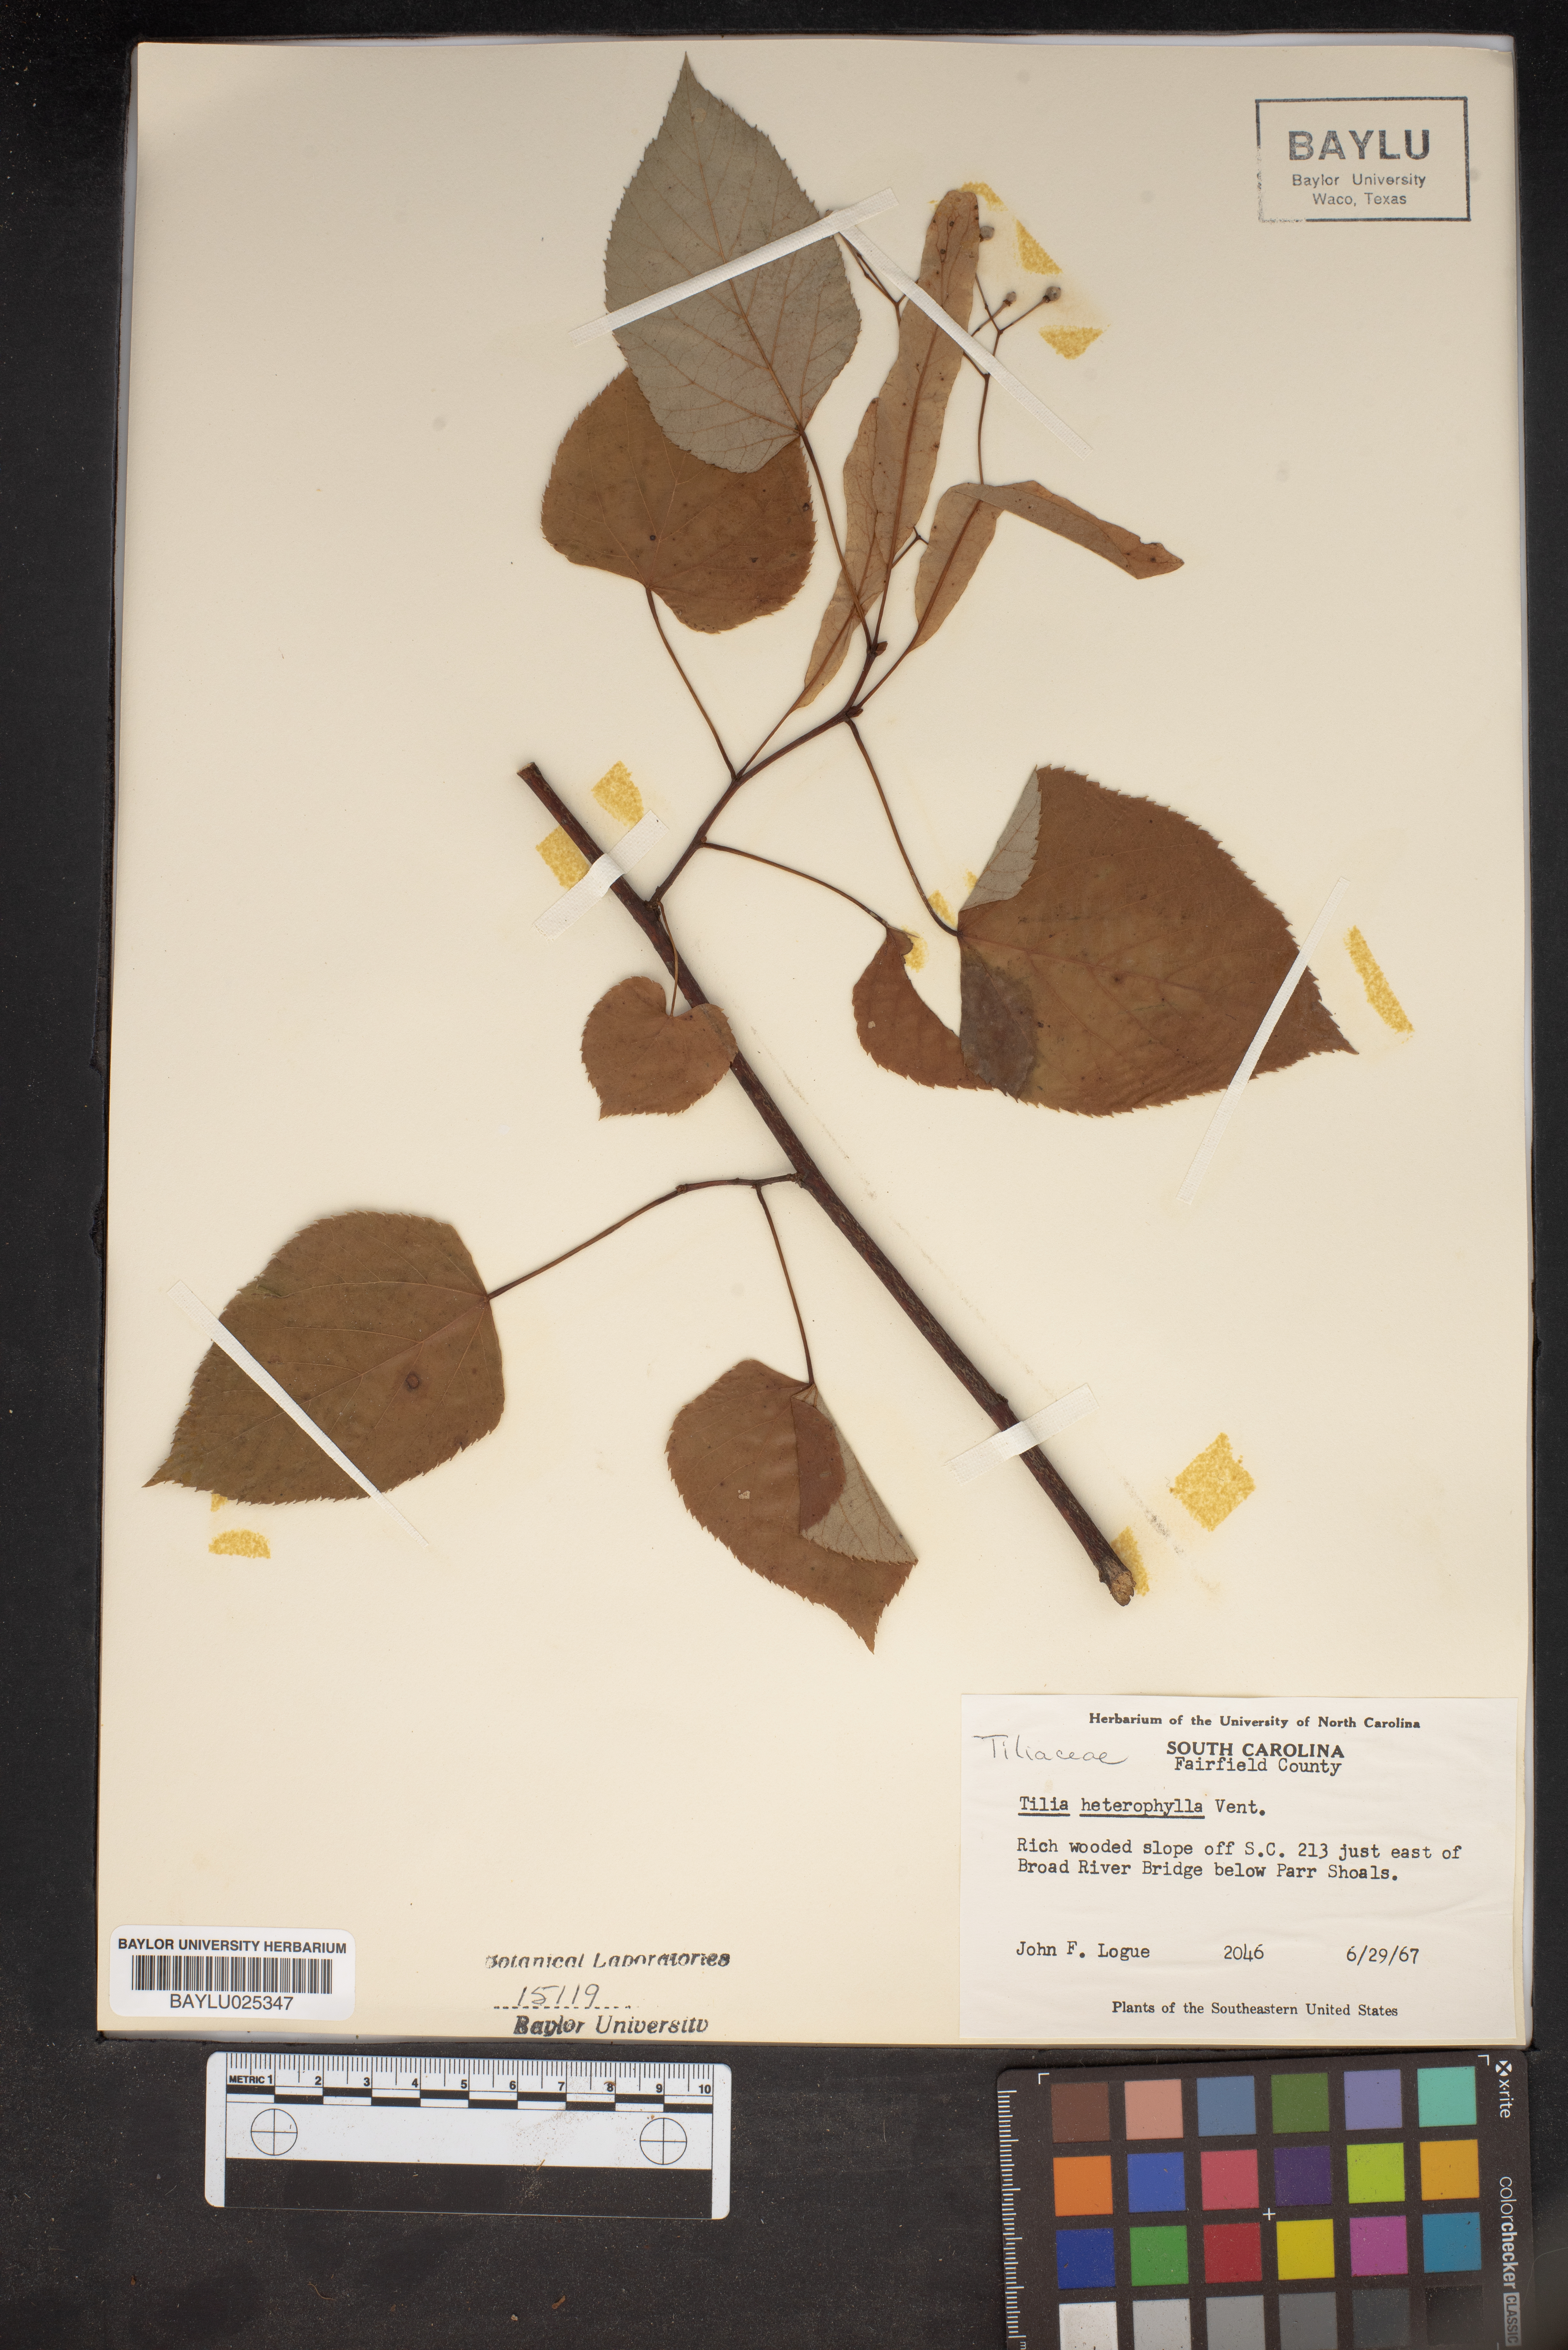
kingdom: Plantae
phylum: Tracheophyta
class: Magnoliopsida
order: Malvales
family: Malvaceae
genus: Tilia
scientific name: Tilia americana
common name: Basswood
